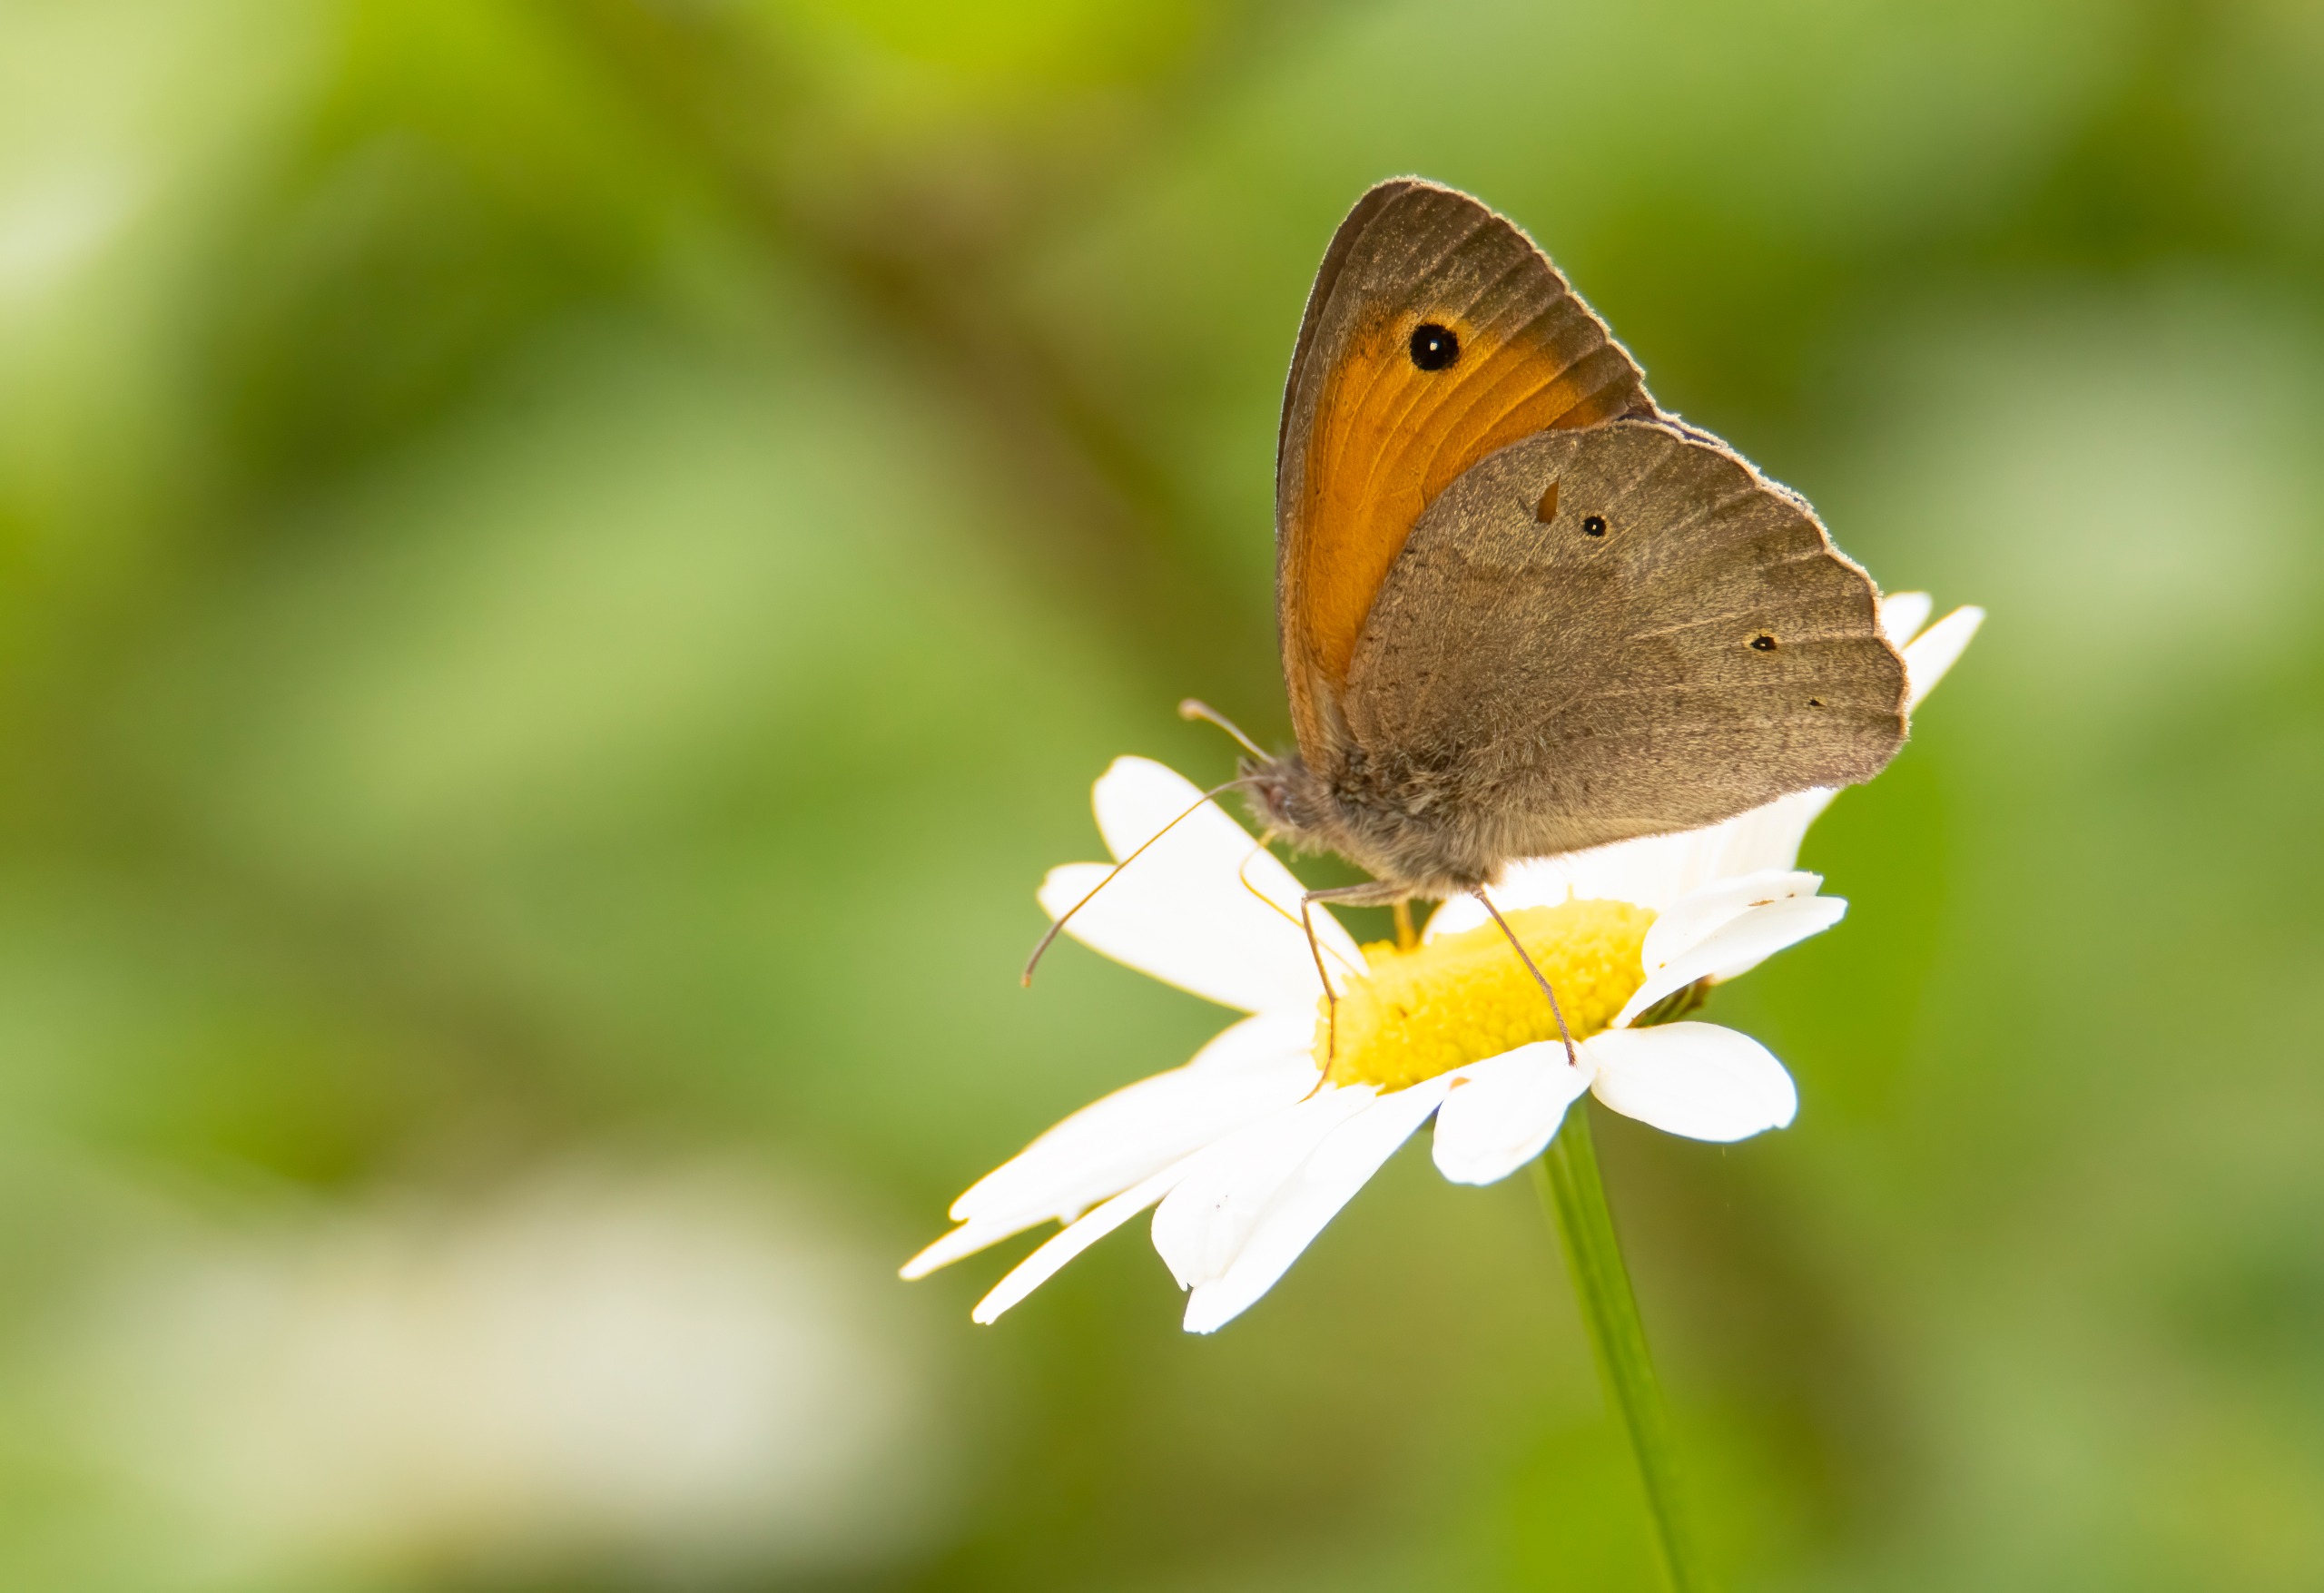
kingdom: Animalia
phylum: Arthropoda
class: Insecta
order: Lepidoptera
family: Nymphalidae
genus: Maniola
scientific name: Maniola jurtina
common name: Græsrandøje
